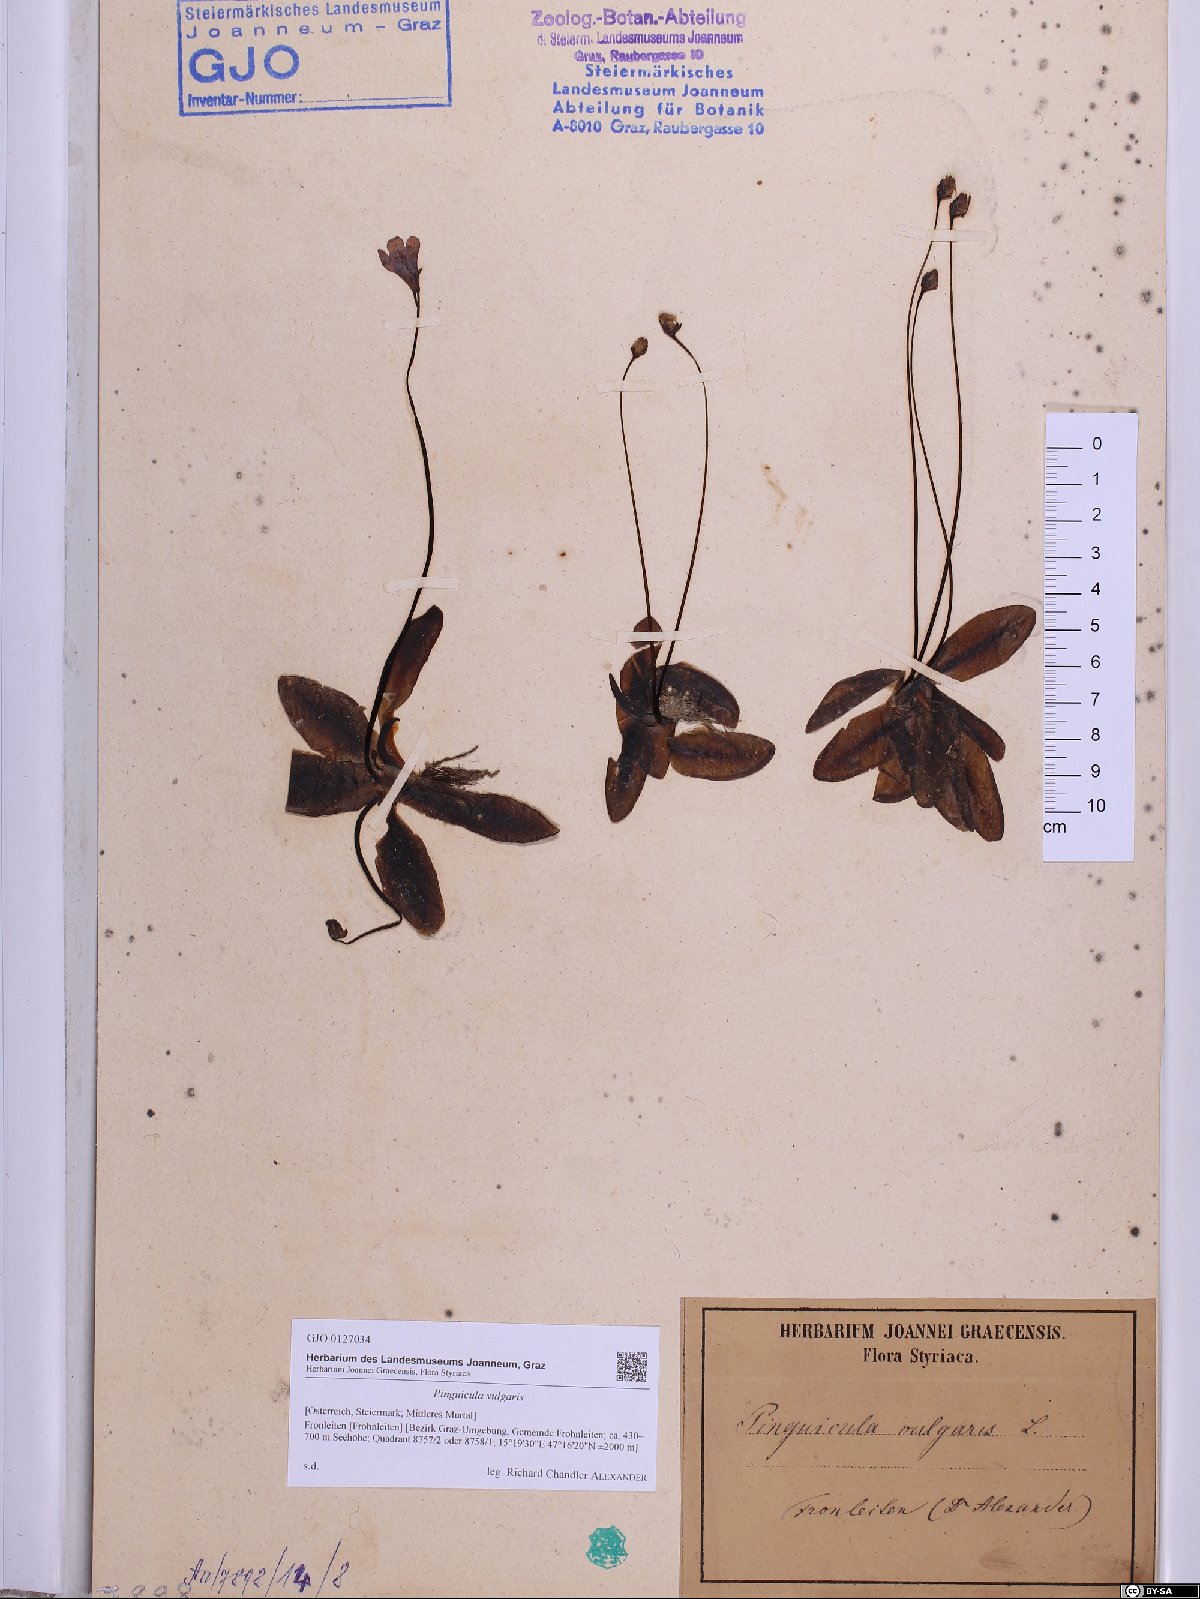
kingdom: Plantae
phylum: Tracheophyta
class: Magnoliopsida
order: Lamiales
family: Lentibulariaceae
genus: Pinguicula
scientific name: Pinguicula vulgaris
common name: Common butterwort
